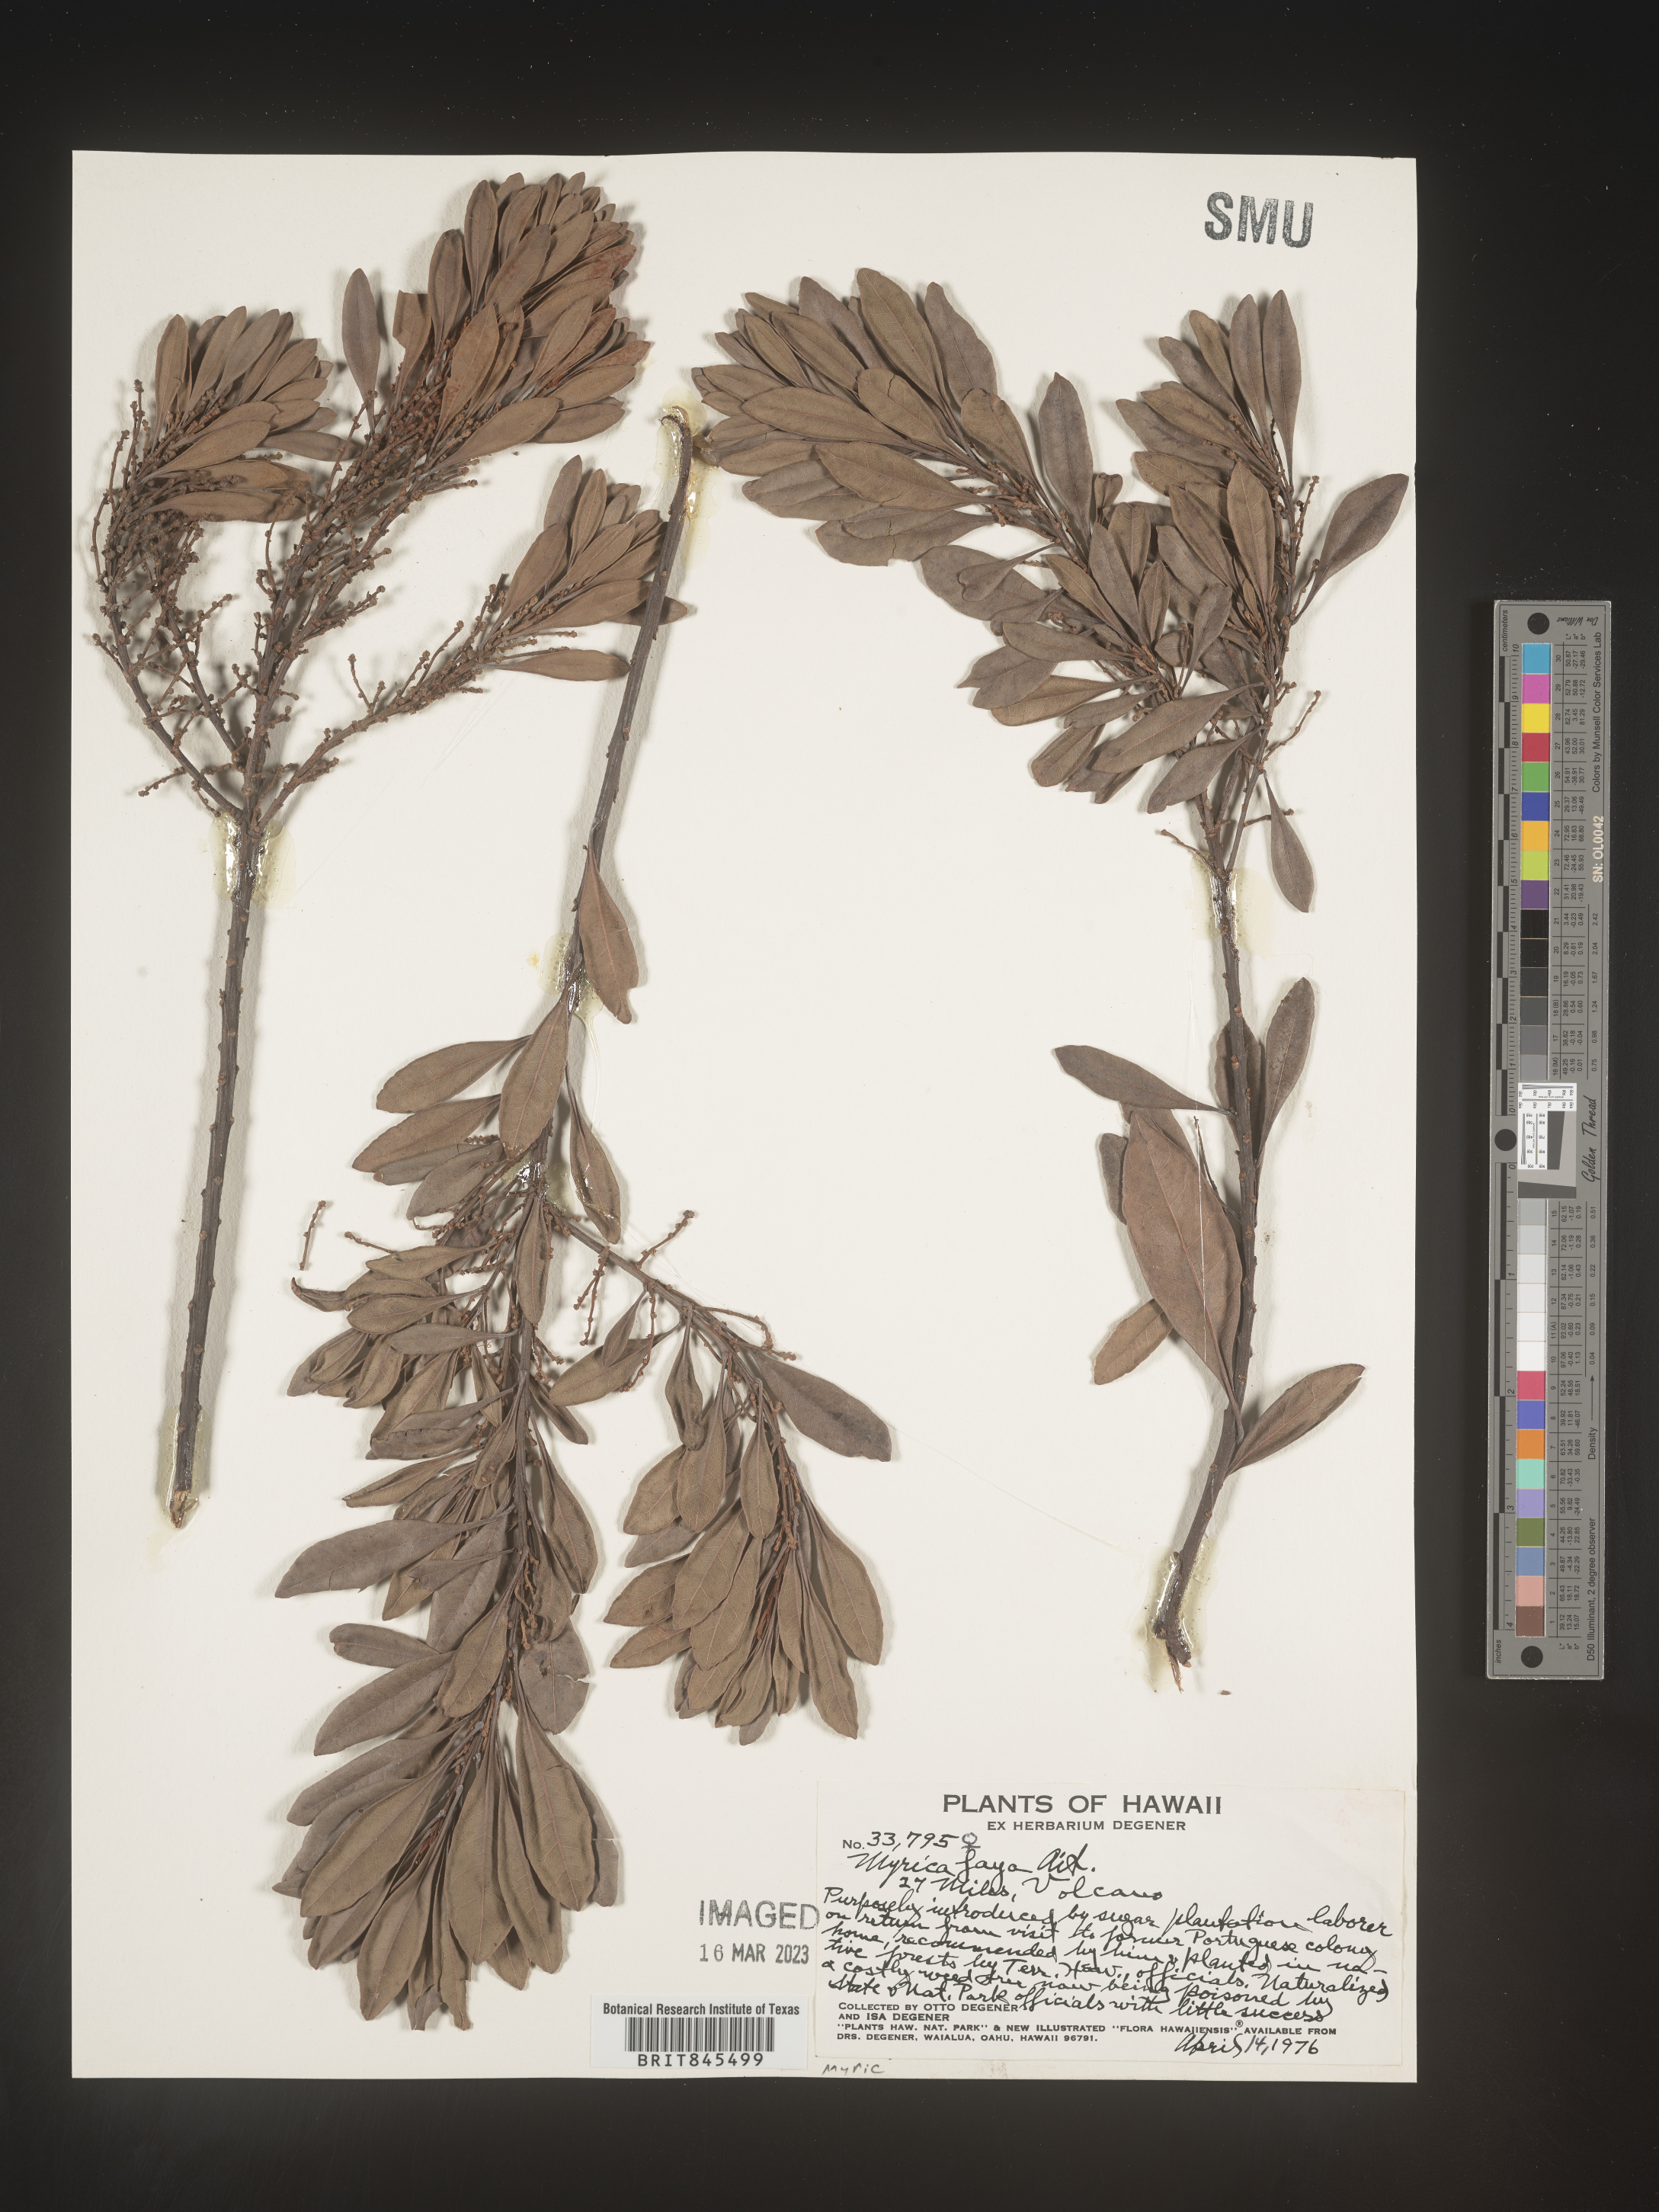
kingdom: Plantae
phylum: Tracheophyta
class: Magnoliopsida
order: Fagales
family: Myricaceae
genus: Myrica
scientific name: Myrica
